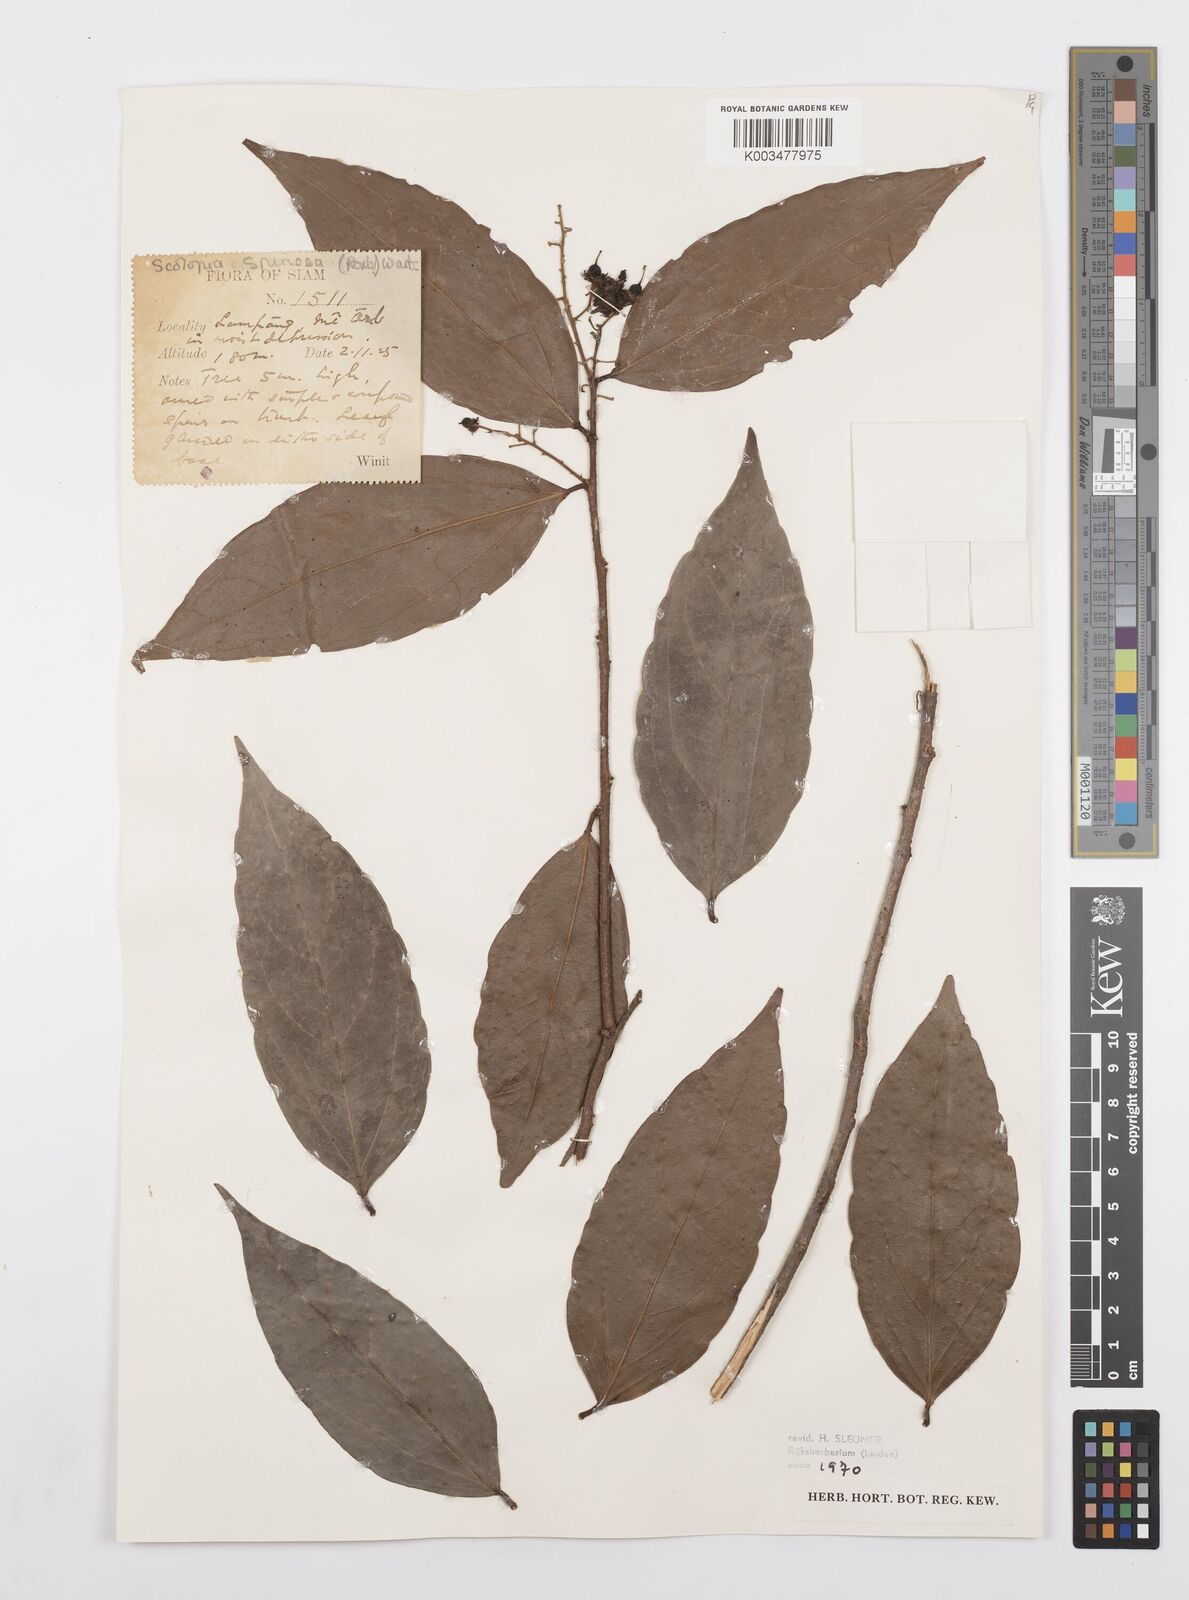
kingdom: Plantae
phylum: Tracheophyta
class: Magnoliopsida
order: Malpighiales
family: Salicaceae
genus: Scolopia
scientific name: Scolopia spinosa
